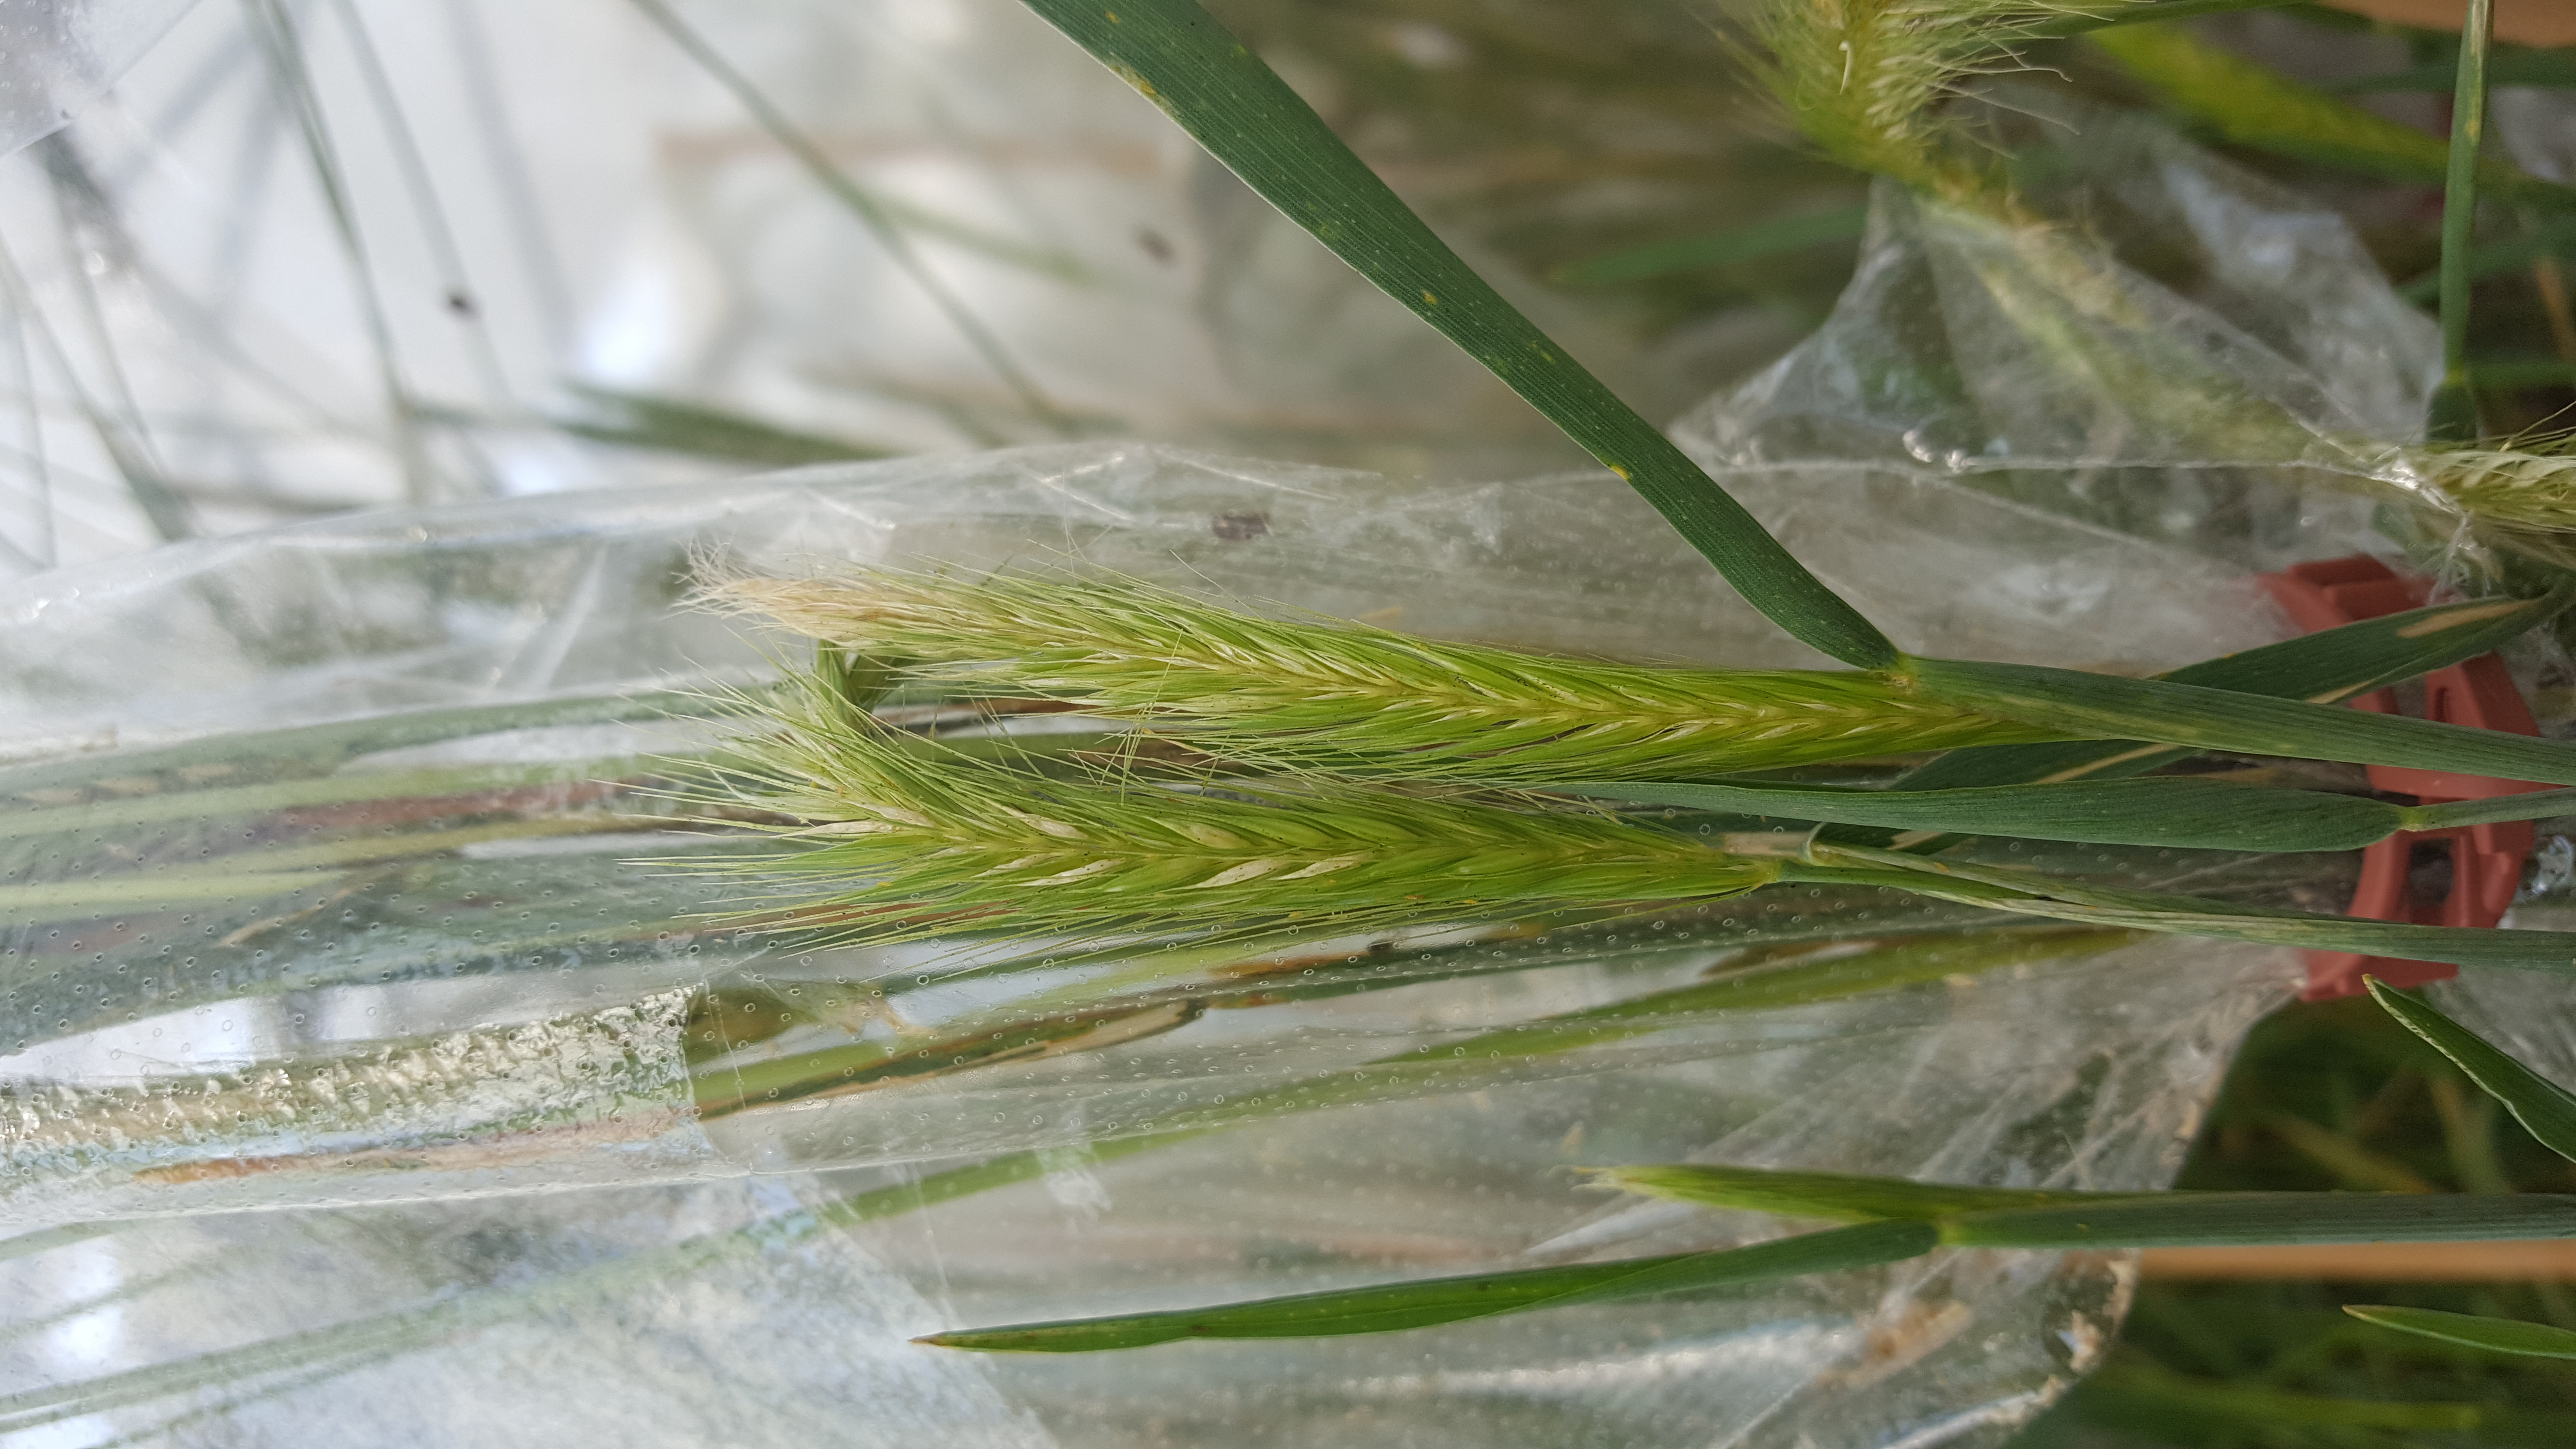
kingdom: Plantae
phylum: Tracheophyta
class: Liliopsida
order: Poales
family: Poaceae
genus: Hordeum
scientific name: Hordeum parodii
